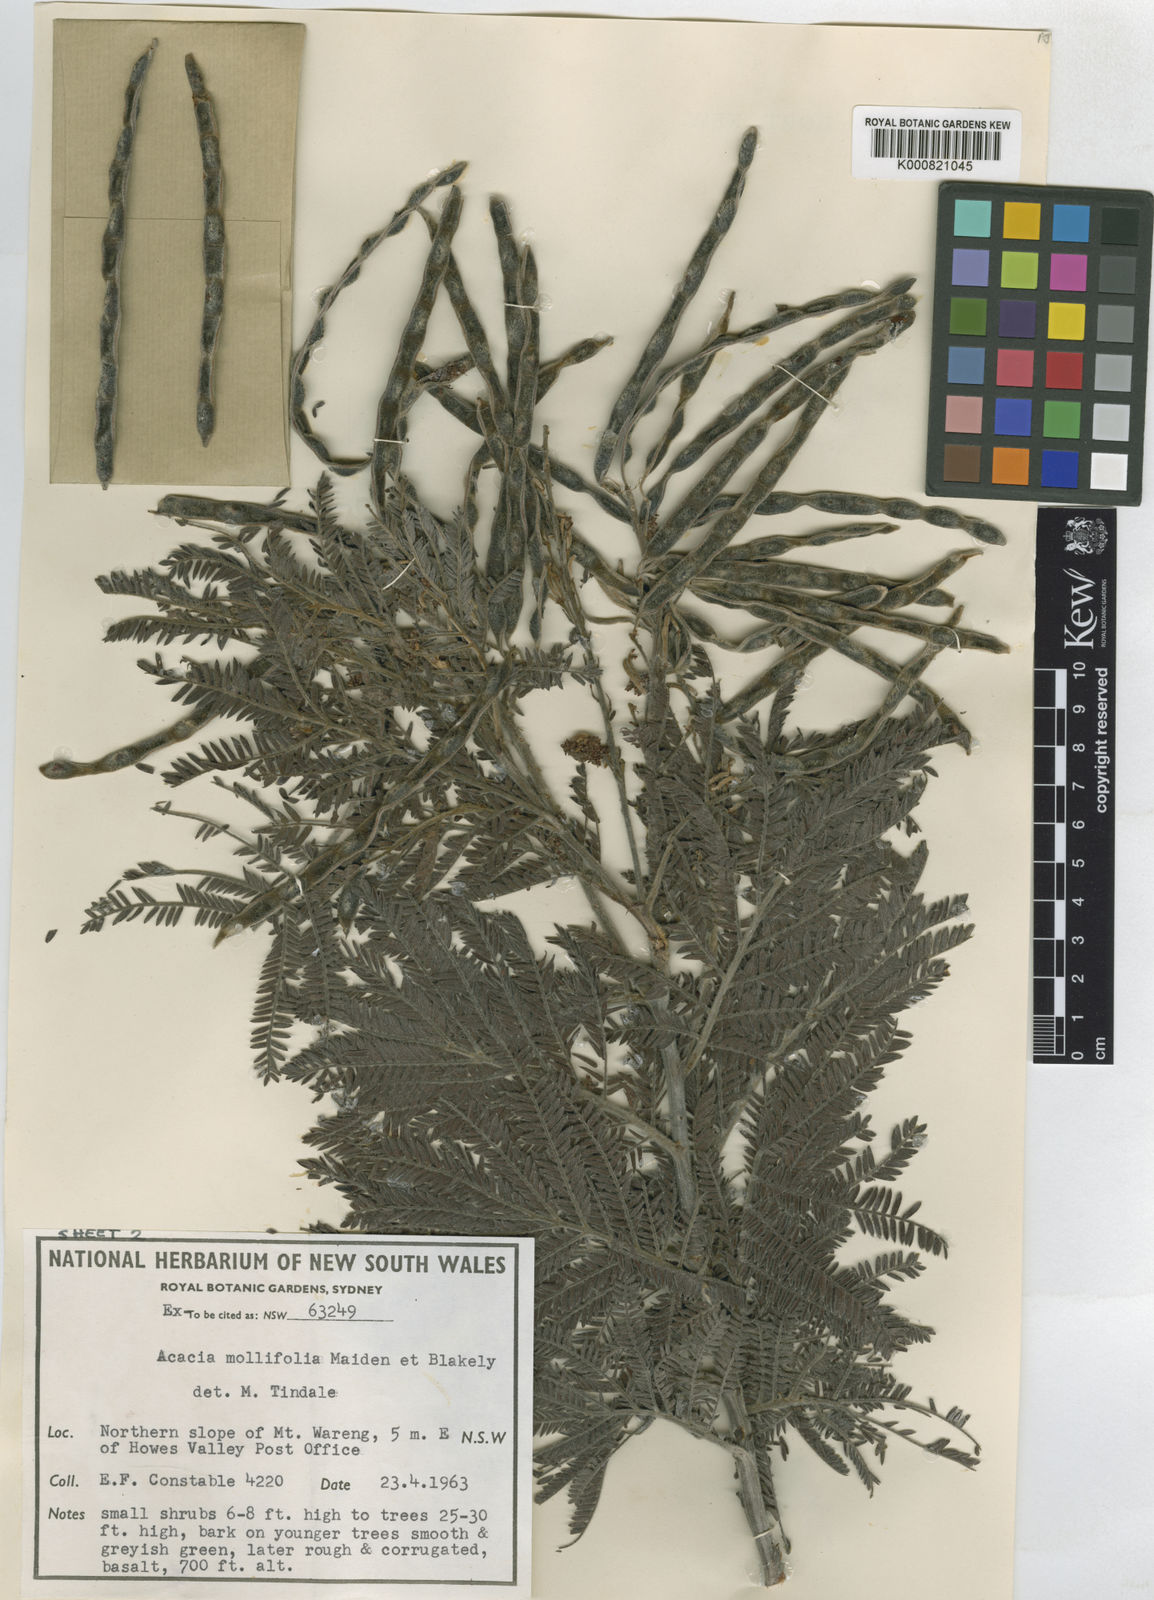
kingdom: Plantae
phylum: Tracheophyta
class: Magnoliopsida
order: Fabales
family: Fabaceae
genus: Acacia
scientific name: Acacia mollifolia
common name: Hairy silver wattle
